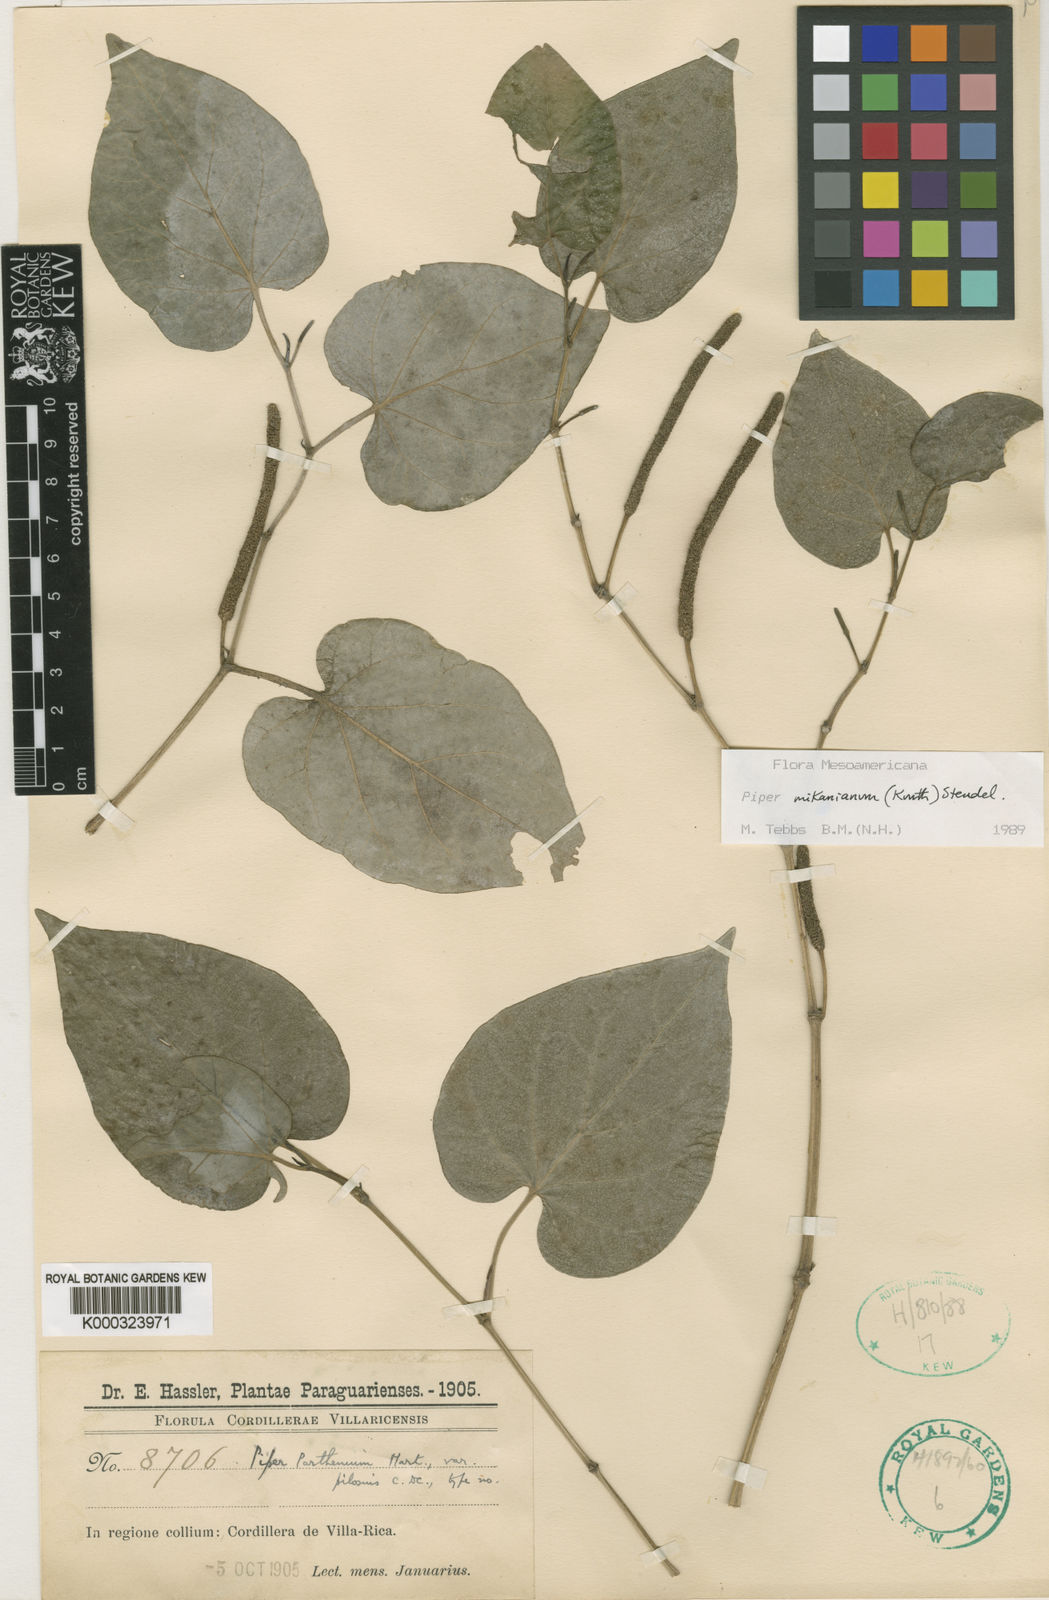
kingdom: Plantae
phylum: Tracheophyta
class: Magnoliopsida
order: Piperales
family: Piperaceae
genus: Piper
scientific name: Piper mikanianum
